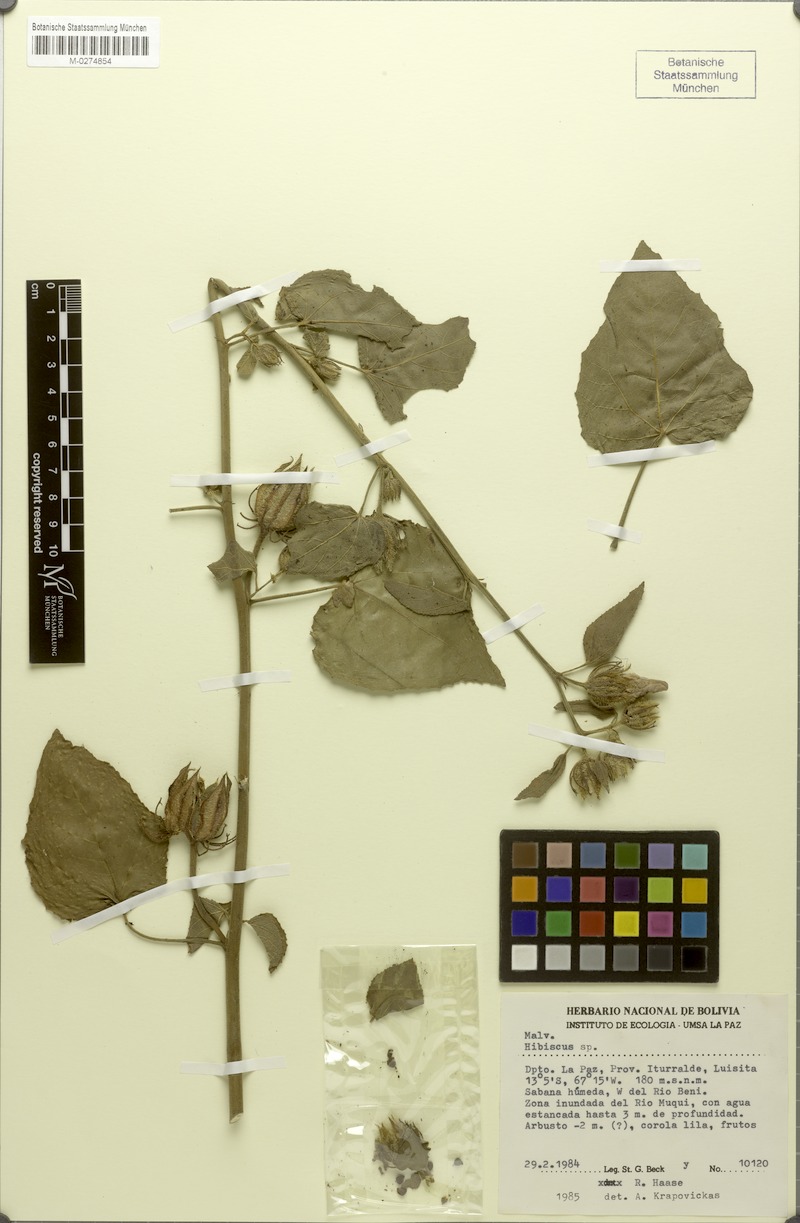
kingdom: Plantae
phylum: Tracheophyta
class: Magnoliopsida
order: Malvales
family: Malvaceae
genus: Hibiscus
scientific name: Hibiscus commixtus
